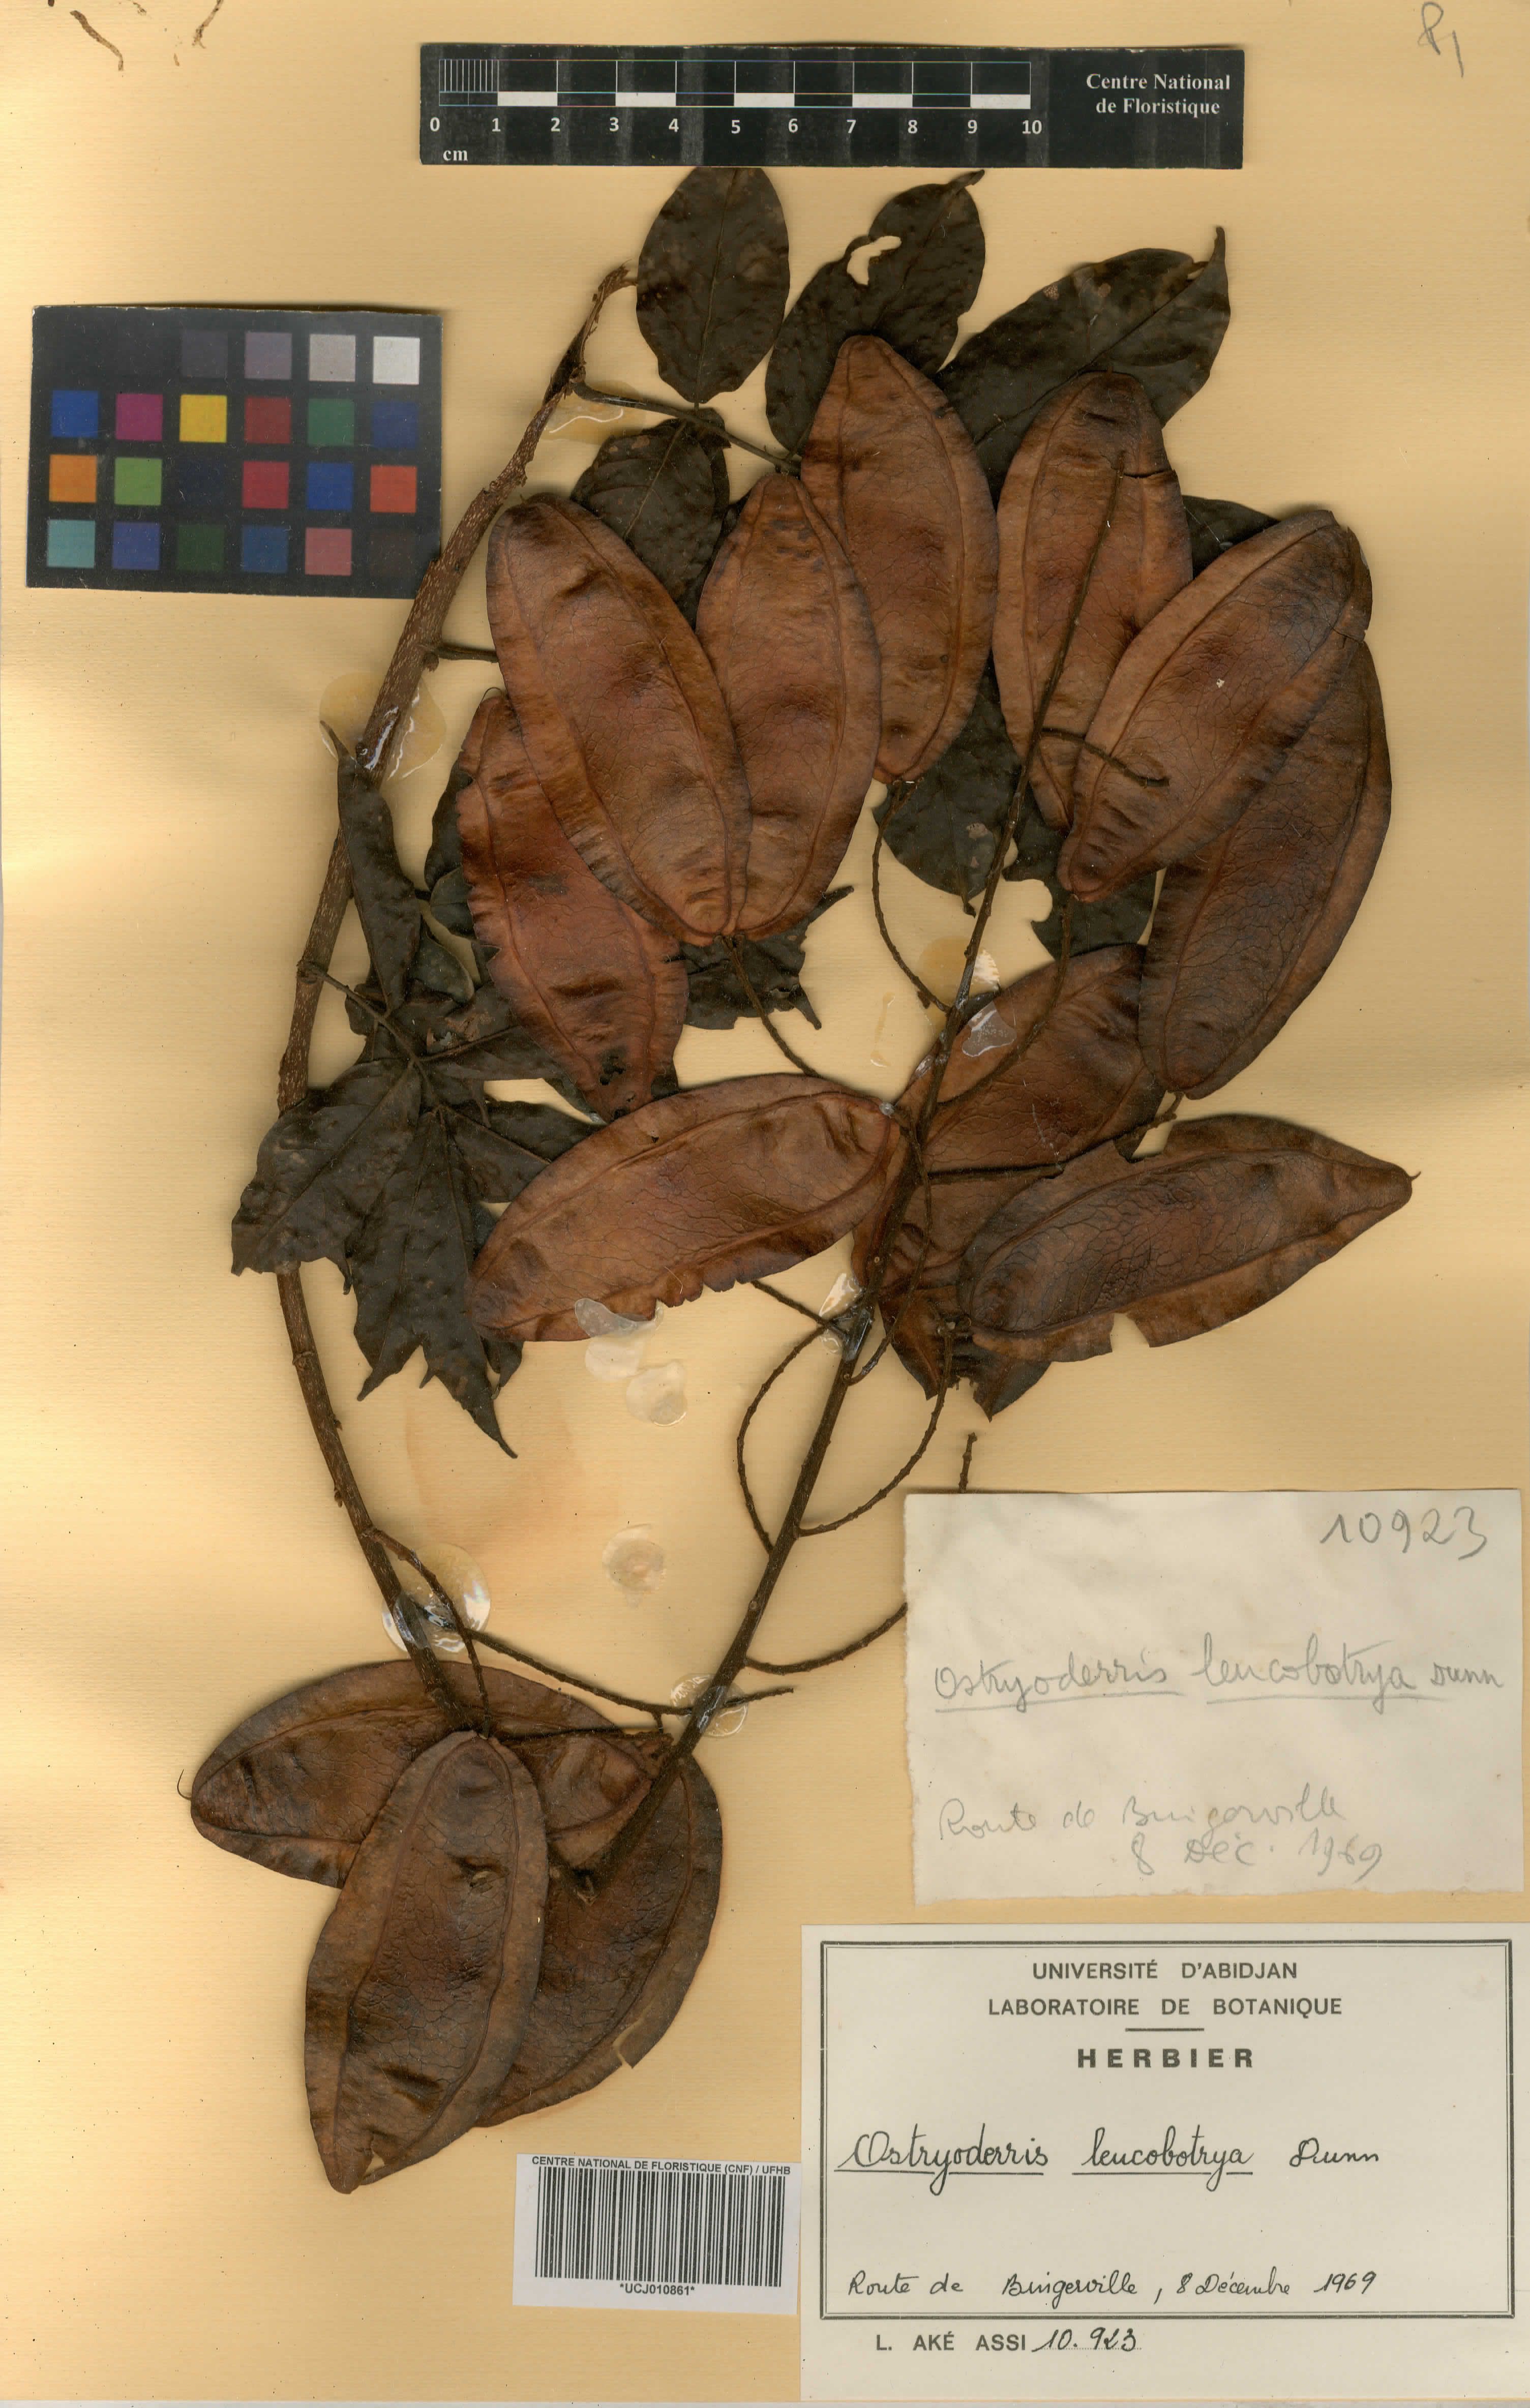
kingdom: Plantae
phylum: Tracheophyta
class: Magnoliopsida
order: Fabales
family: Fabaceae
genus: Aganope
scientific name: Aganope leucobotrya
